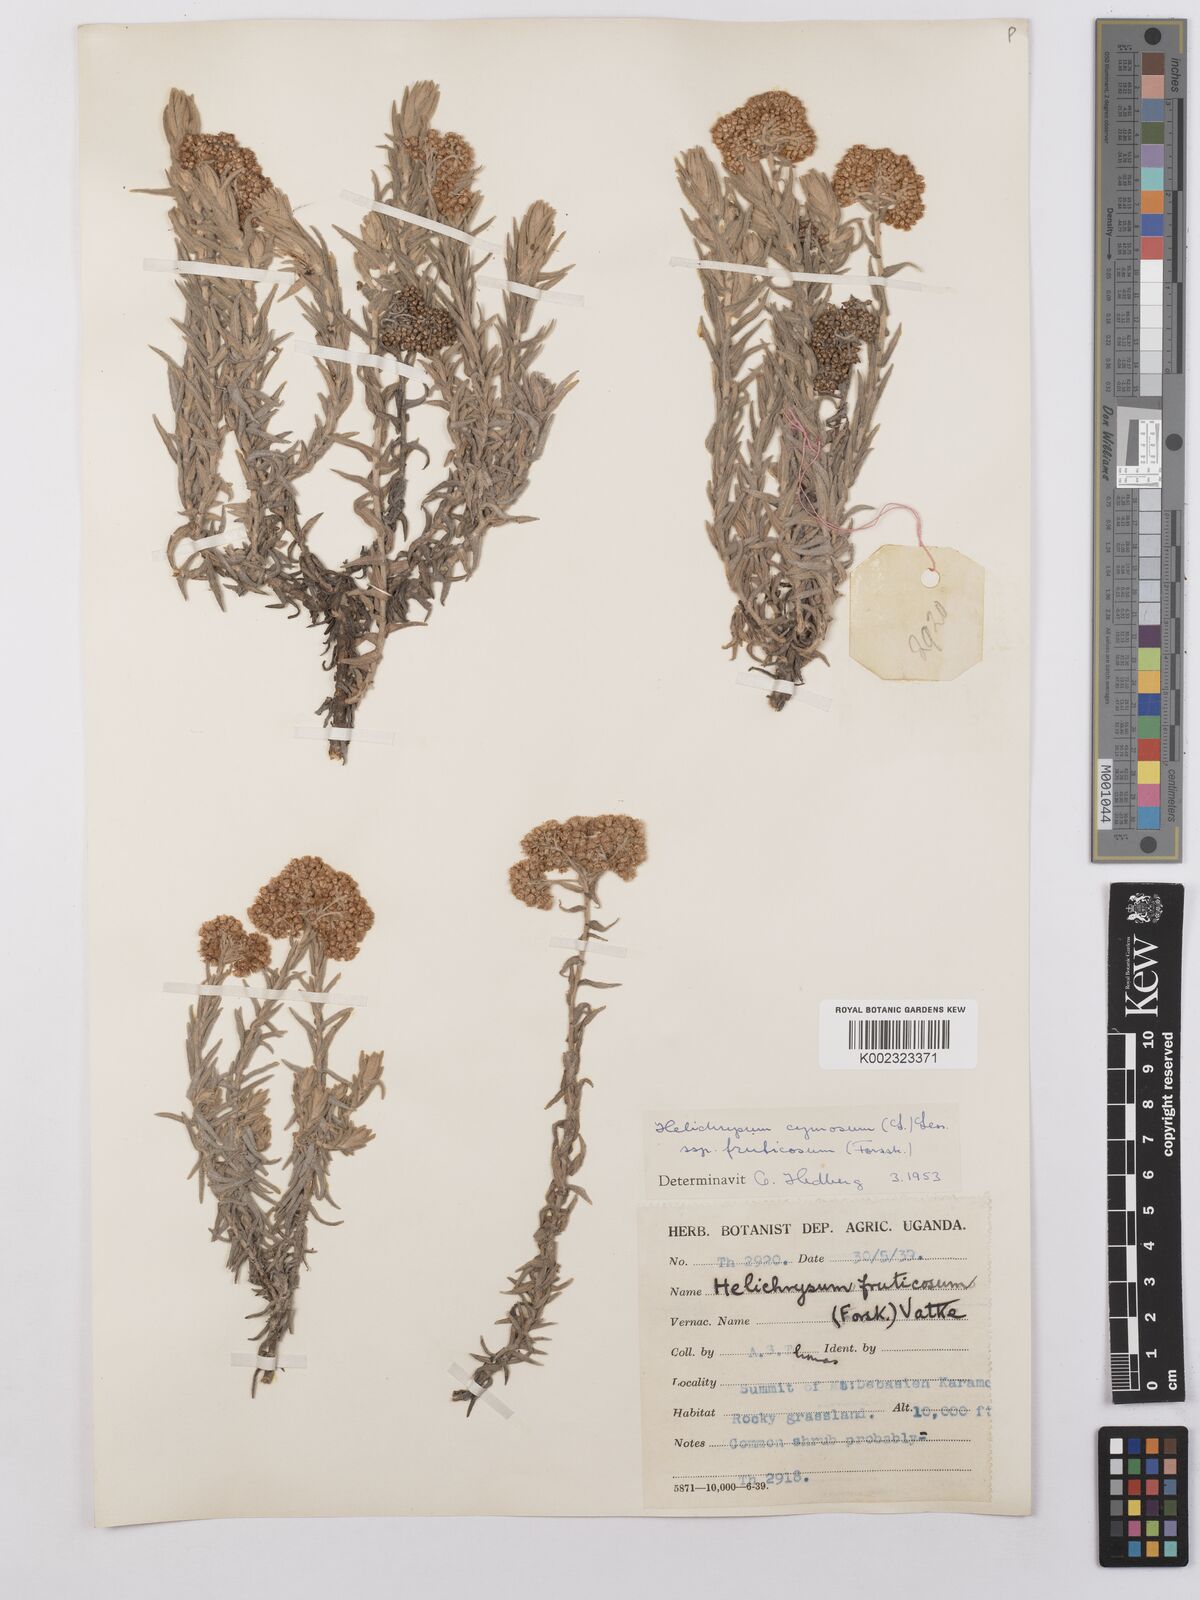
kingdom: Plantae
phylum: Tracheophyta
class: Magnoliopsida
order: Asterales
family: Asteraceae
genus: Helichrysum
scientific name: Helichrysum forskahlii
